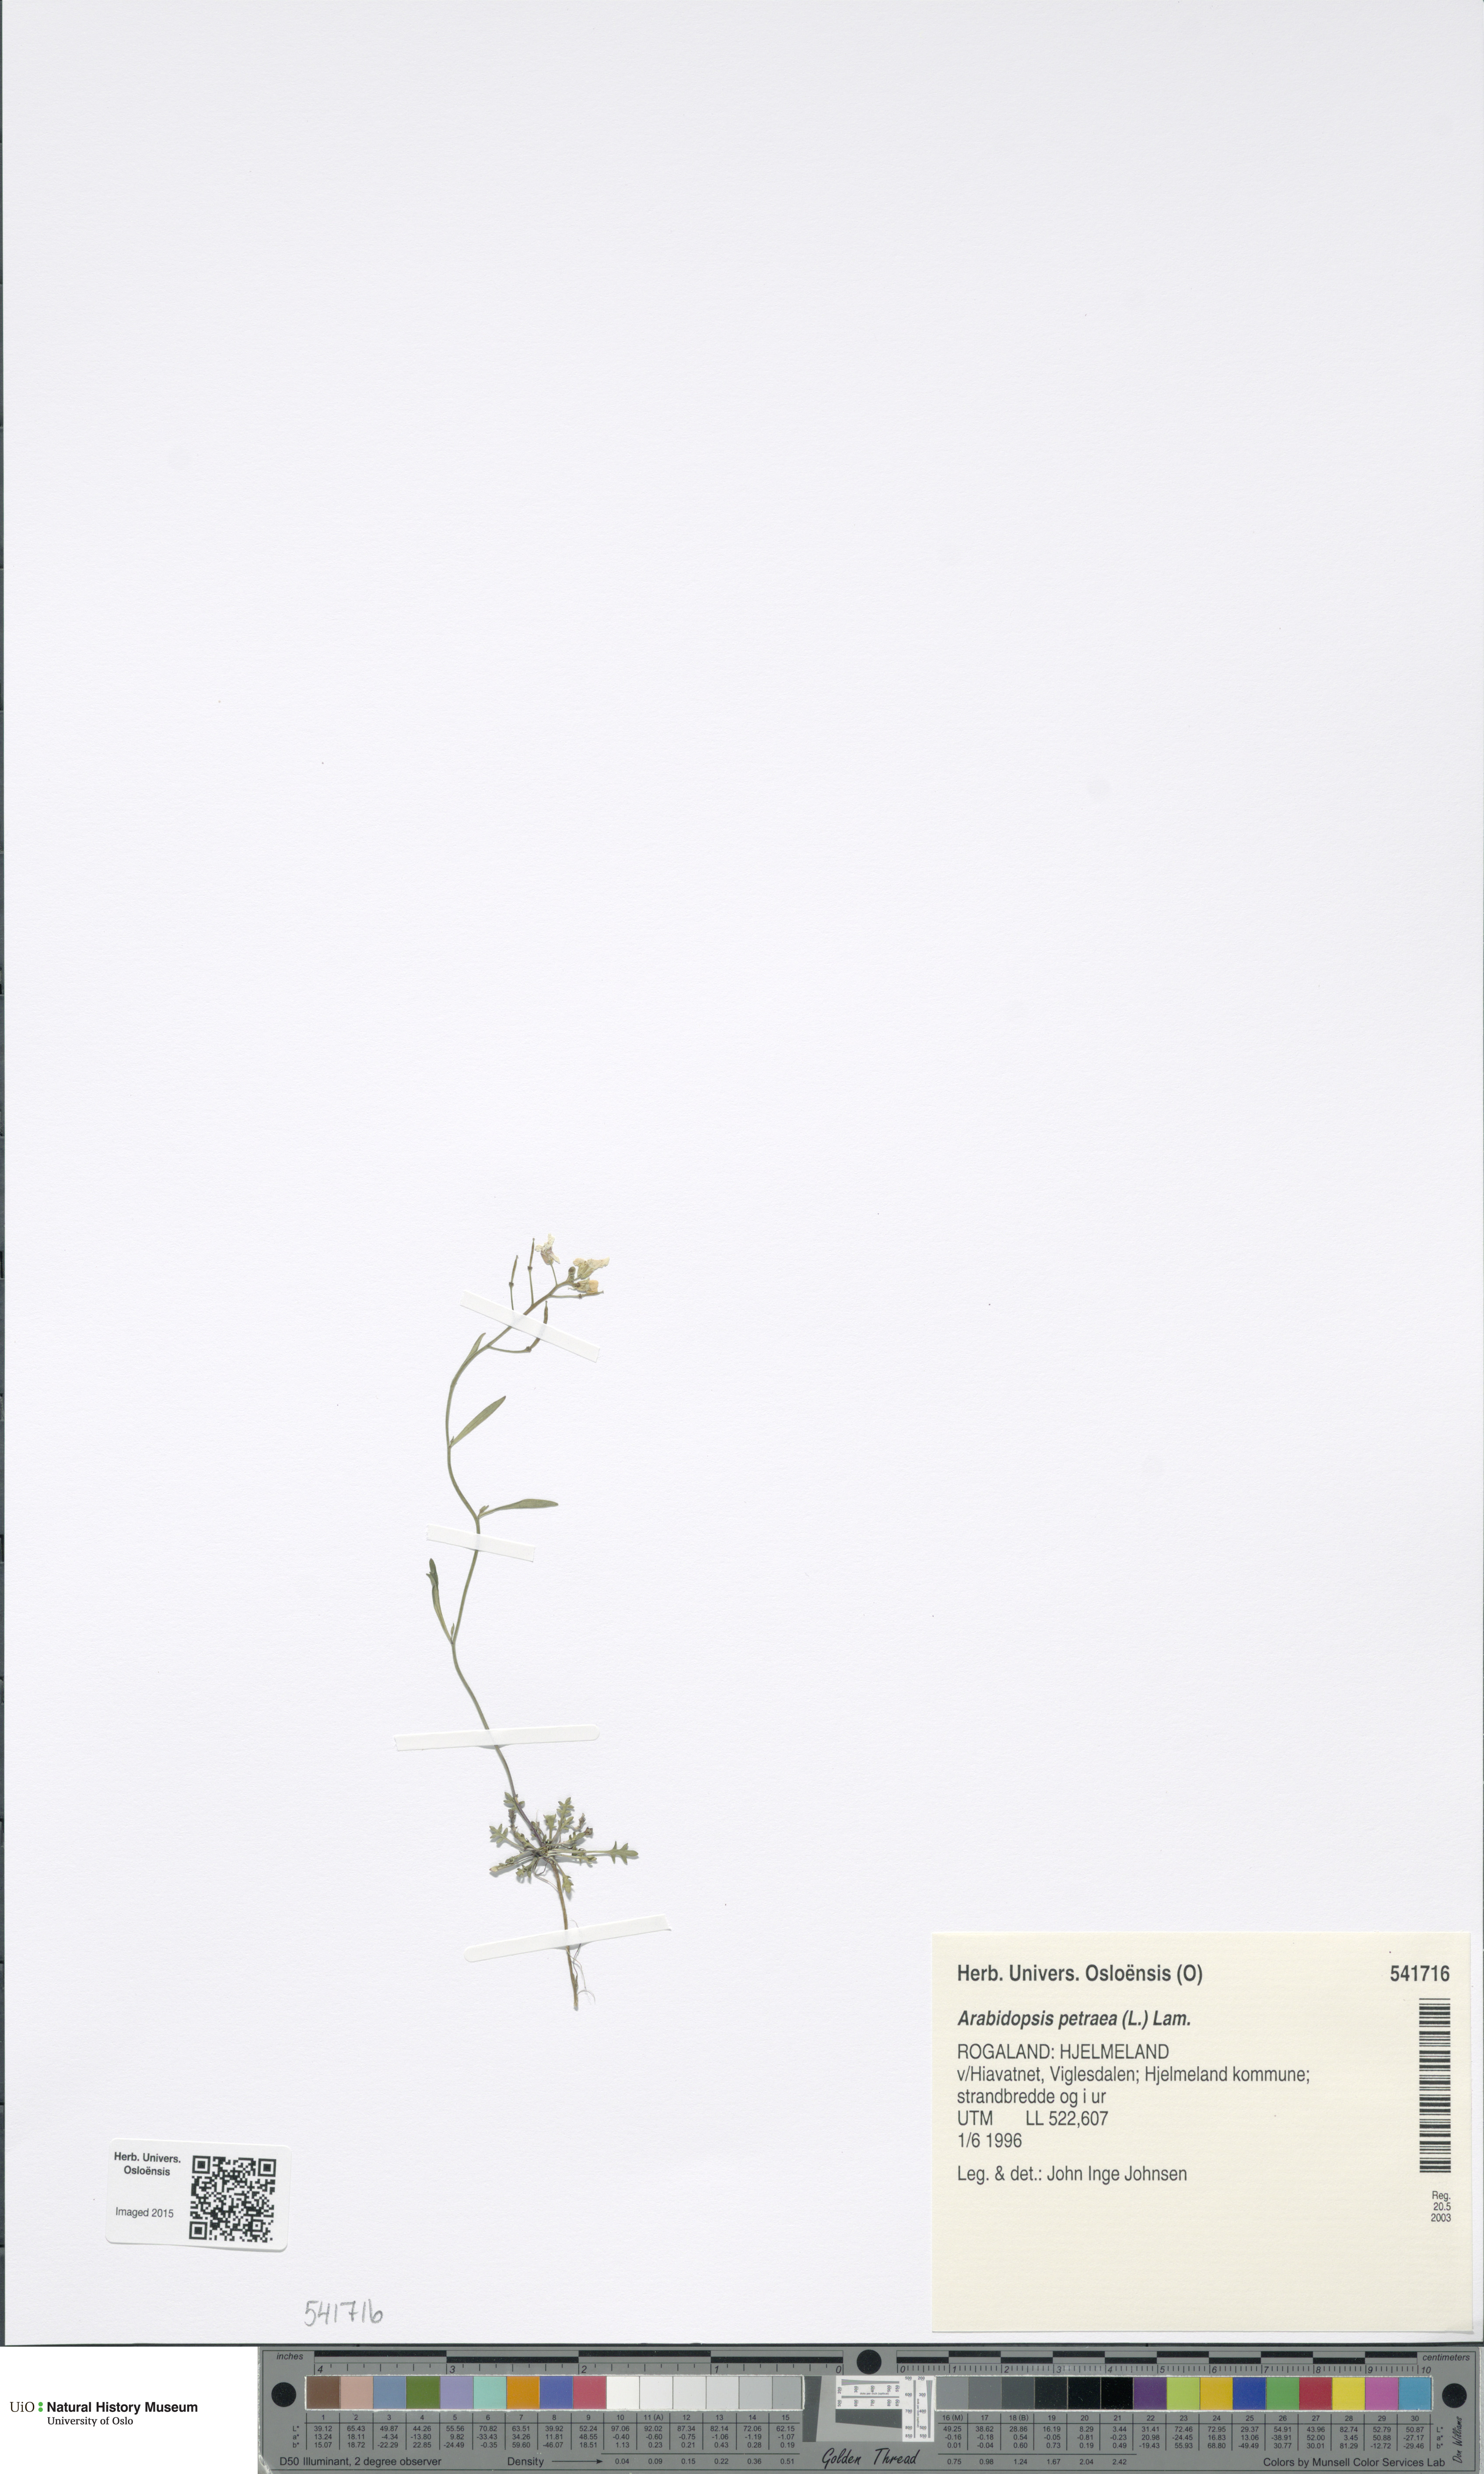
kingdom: Plantae
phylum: Tracheophyta
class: Magnoliopsida
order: Brassicales
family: Brassicaceae
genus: Arabidopsis
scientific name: Arabidopsis petraea
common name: Northern rock-cress
